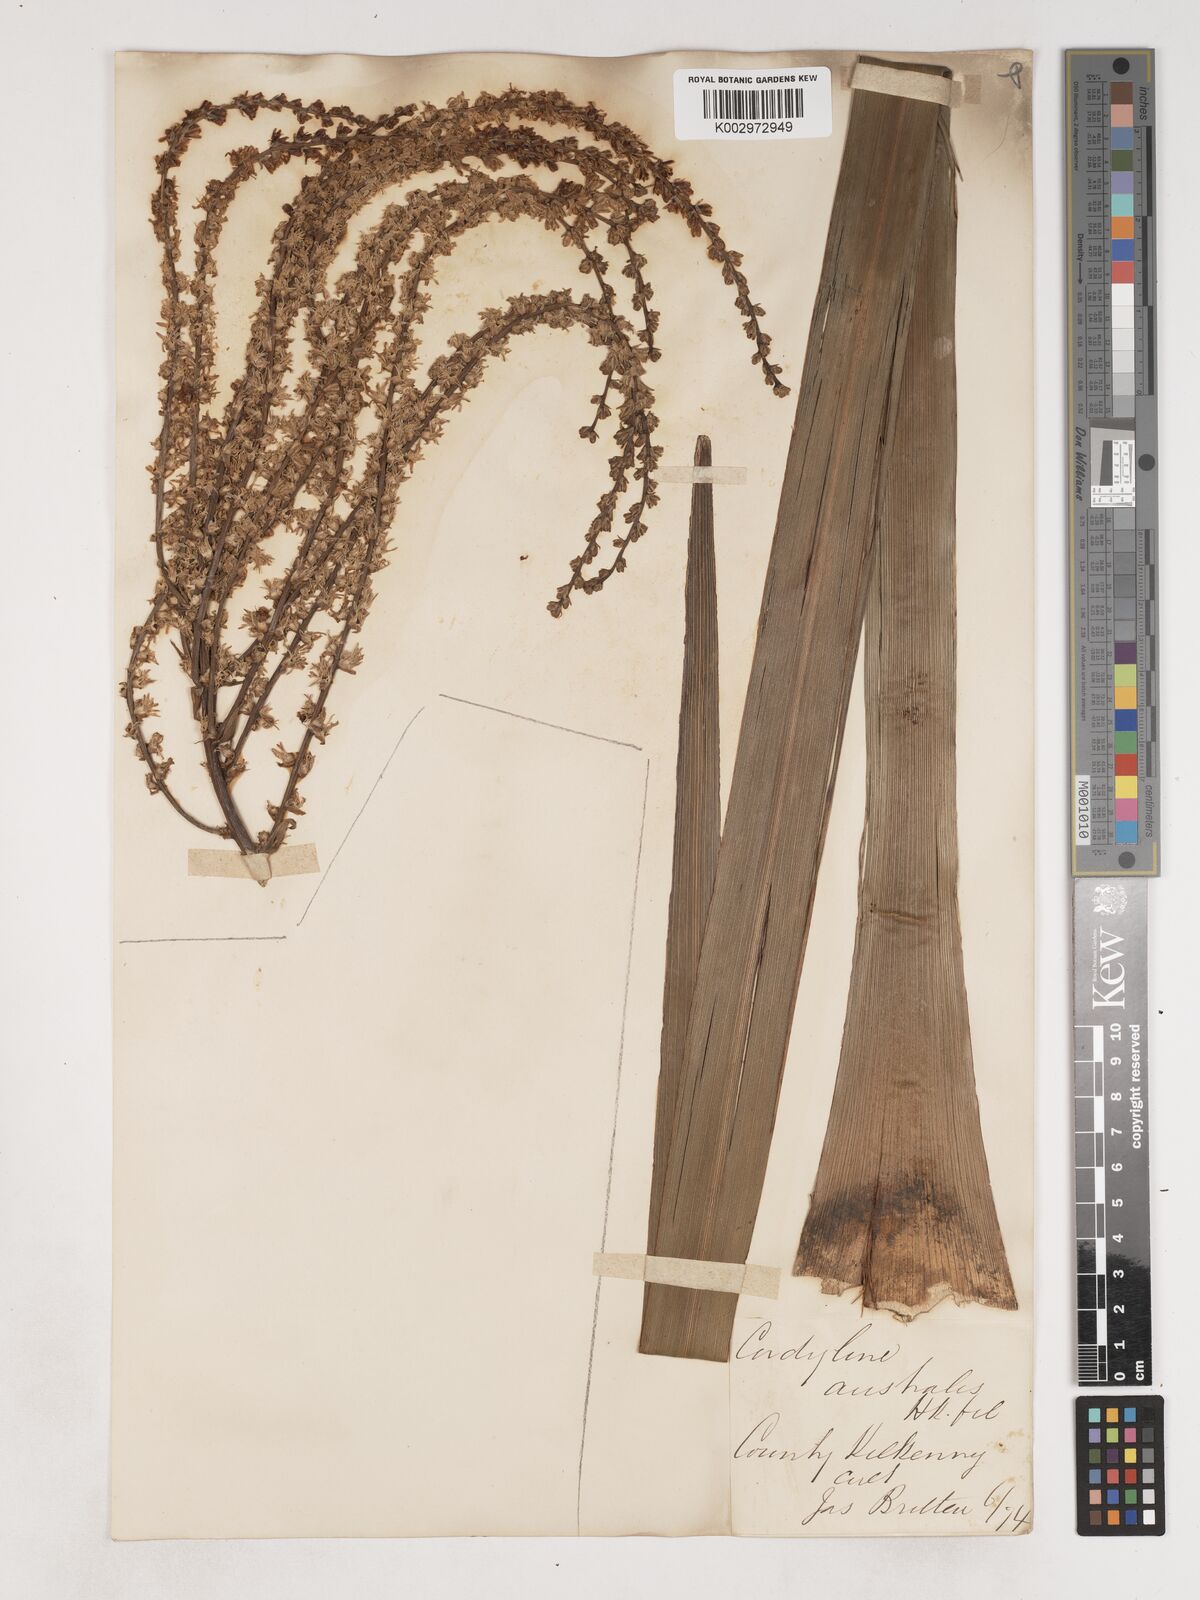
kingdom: Plantae
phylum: Tracheophyta
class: Liliopsida
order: Asparagales
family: Asparagaceae
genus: Cordyline
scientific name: Cordyline australis
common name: Cabbage-palm
